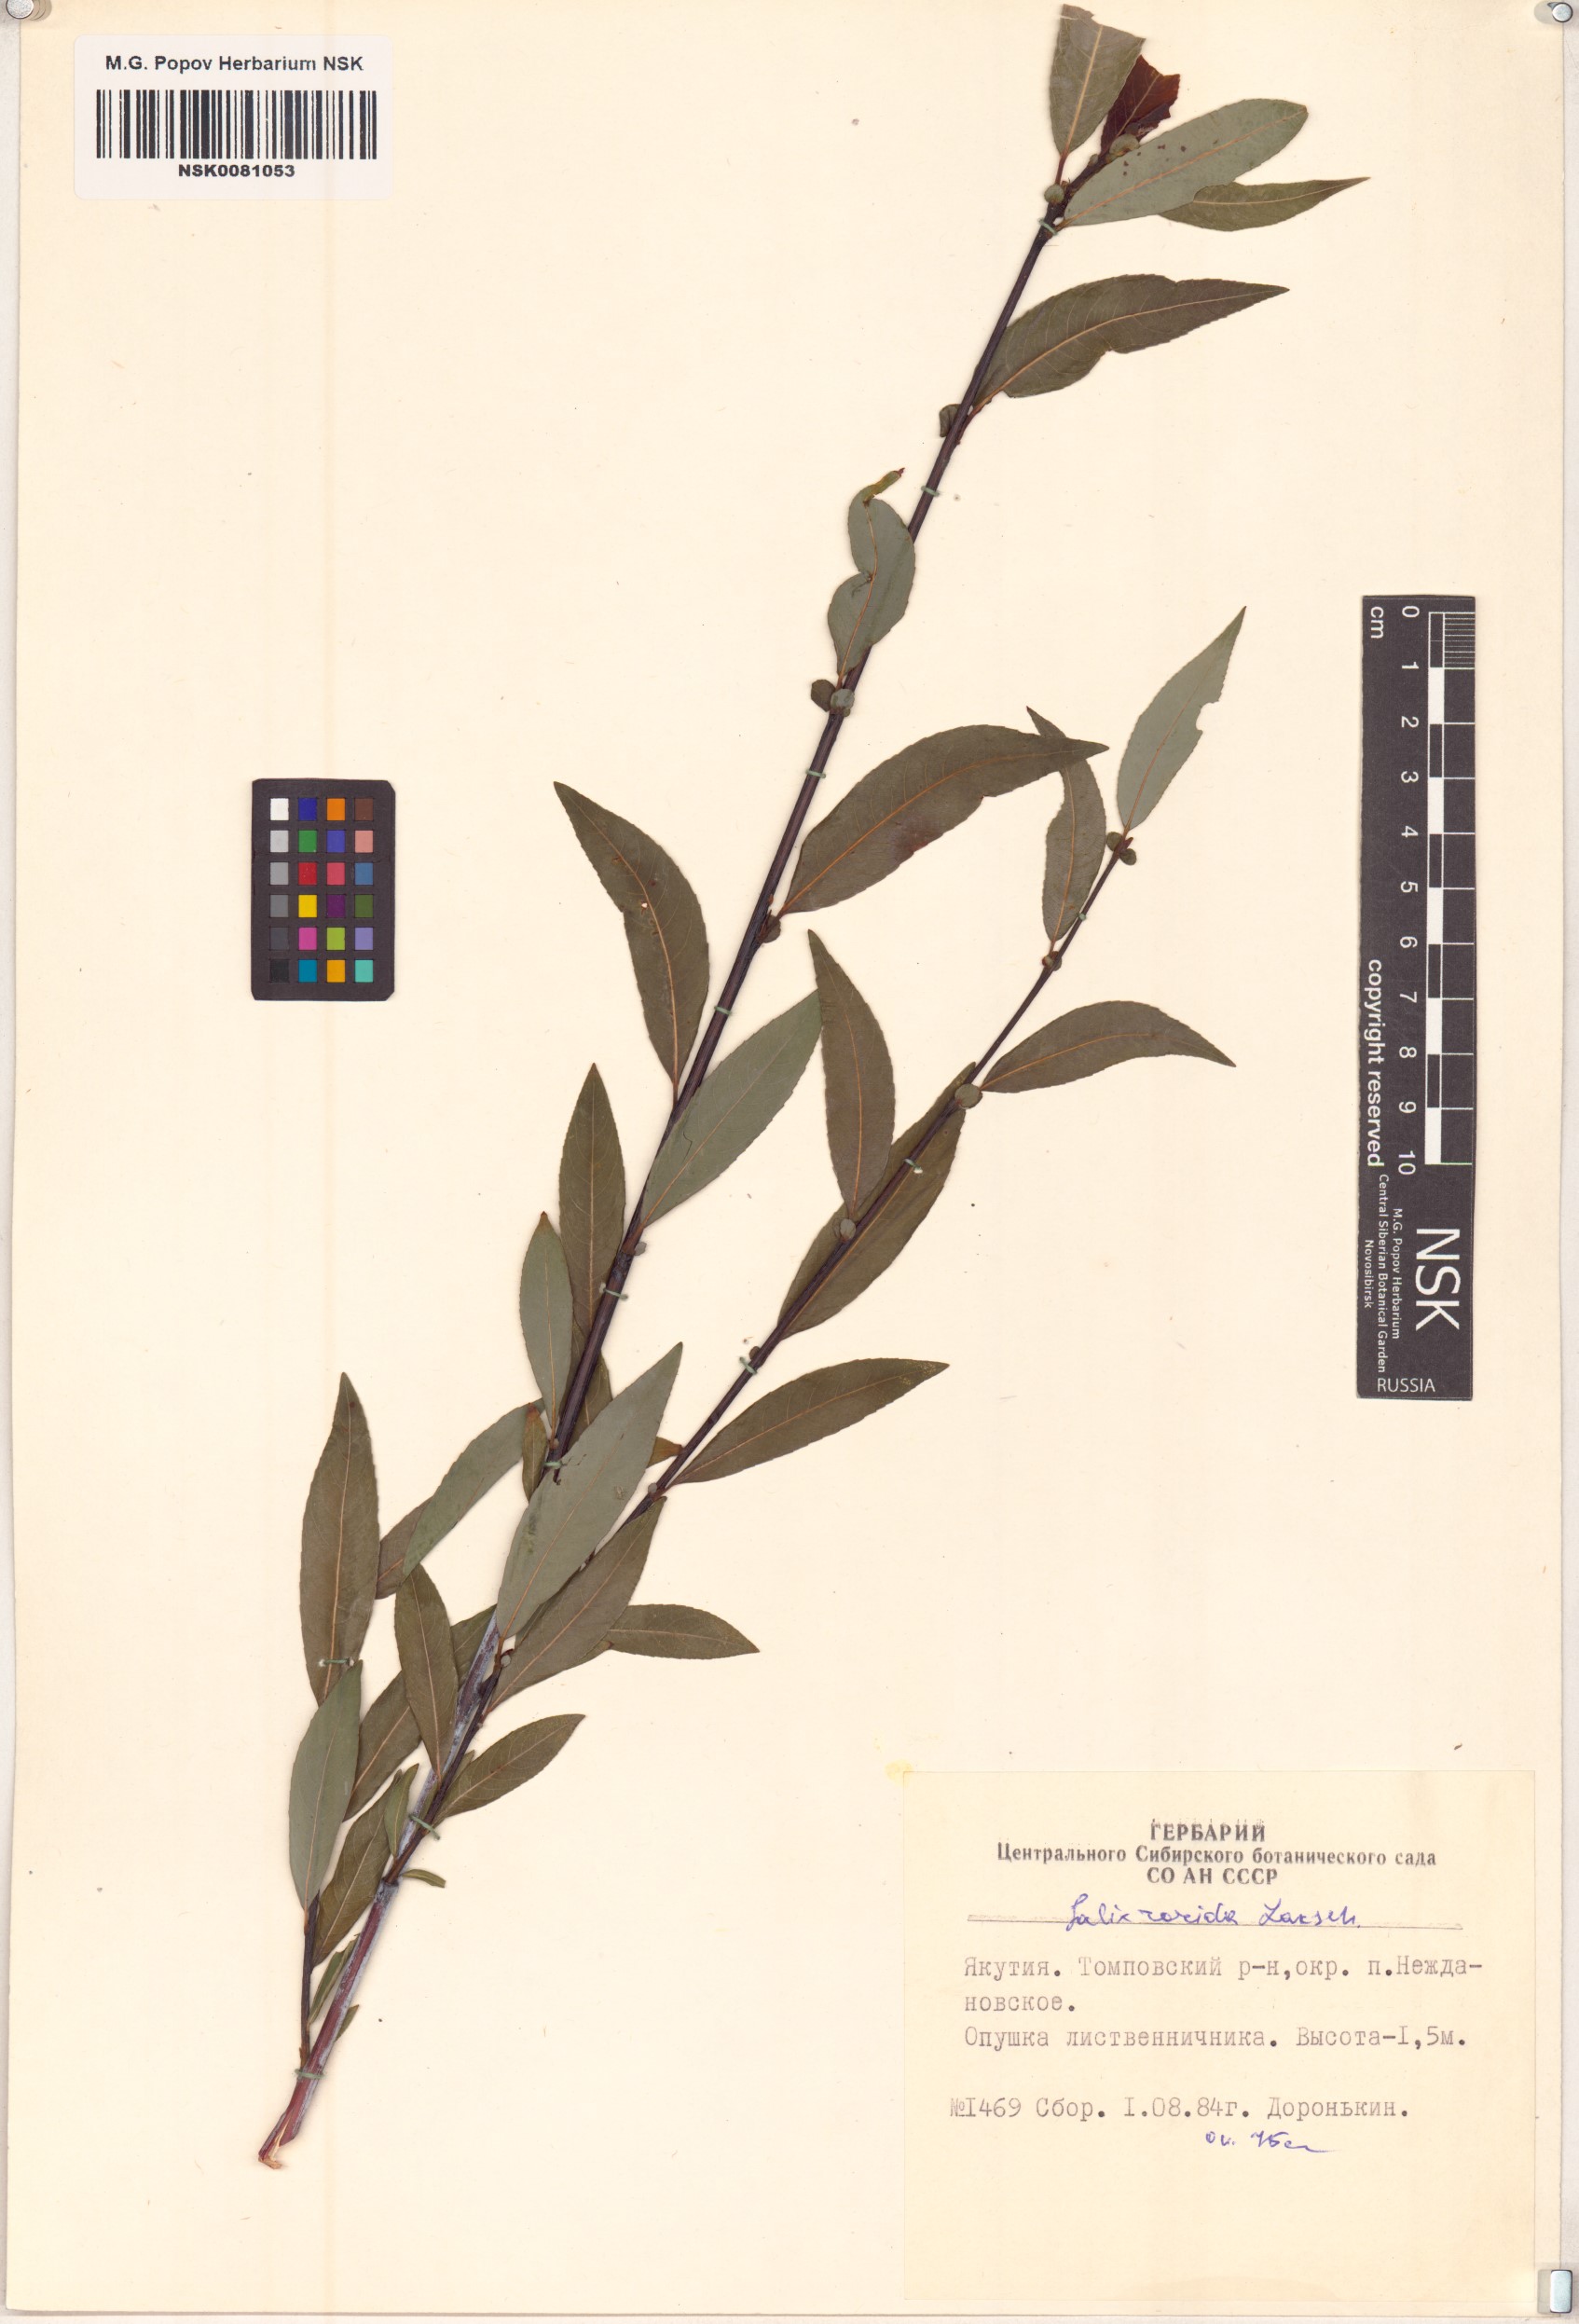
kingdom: Plantae
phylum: Tracheophyta
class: Magnoliopsida
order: Malpighiales
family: Salicaceae
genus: Salix
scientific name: Salix rorida
